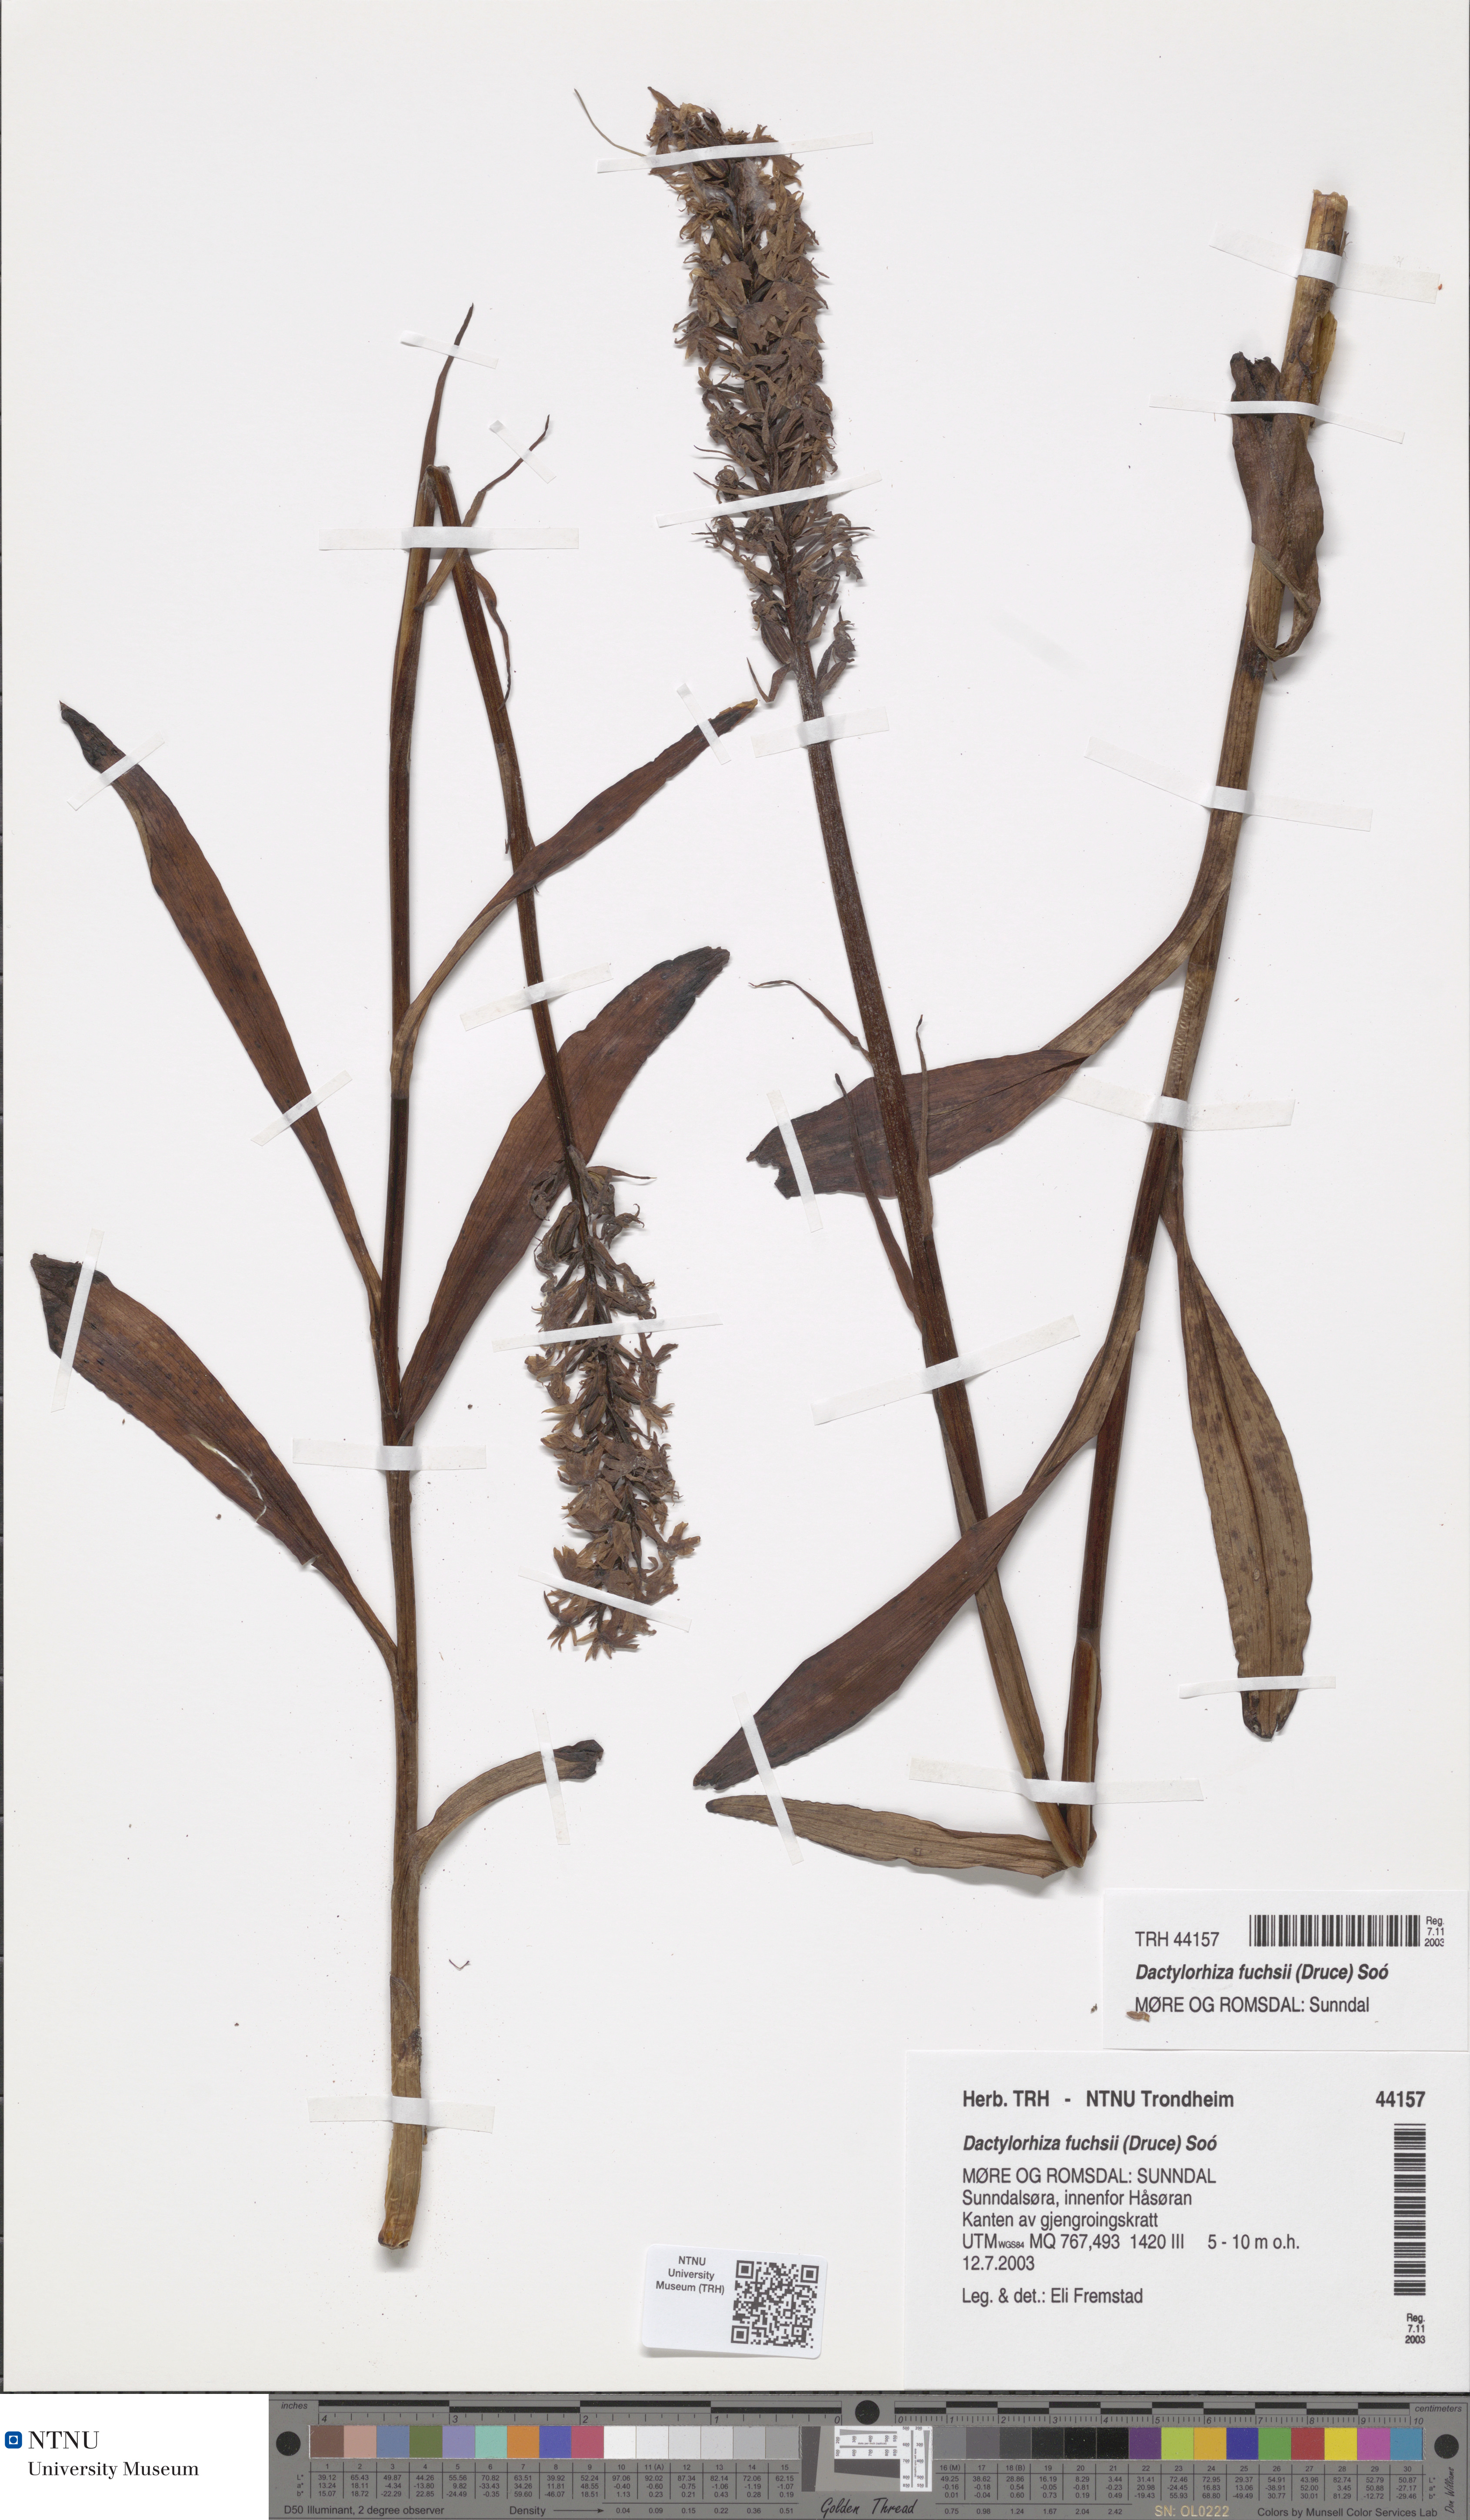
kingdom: Plantae
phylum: Tracheophyta
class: Liliopsida
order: Asparagales
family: Orchidaceae
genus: Dactylorhiza
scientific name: Dactylorhiza maculata
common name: Heath spotted-orchid
